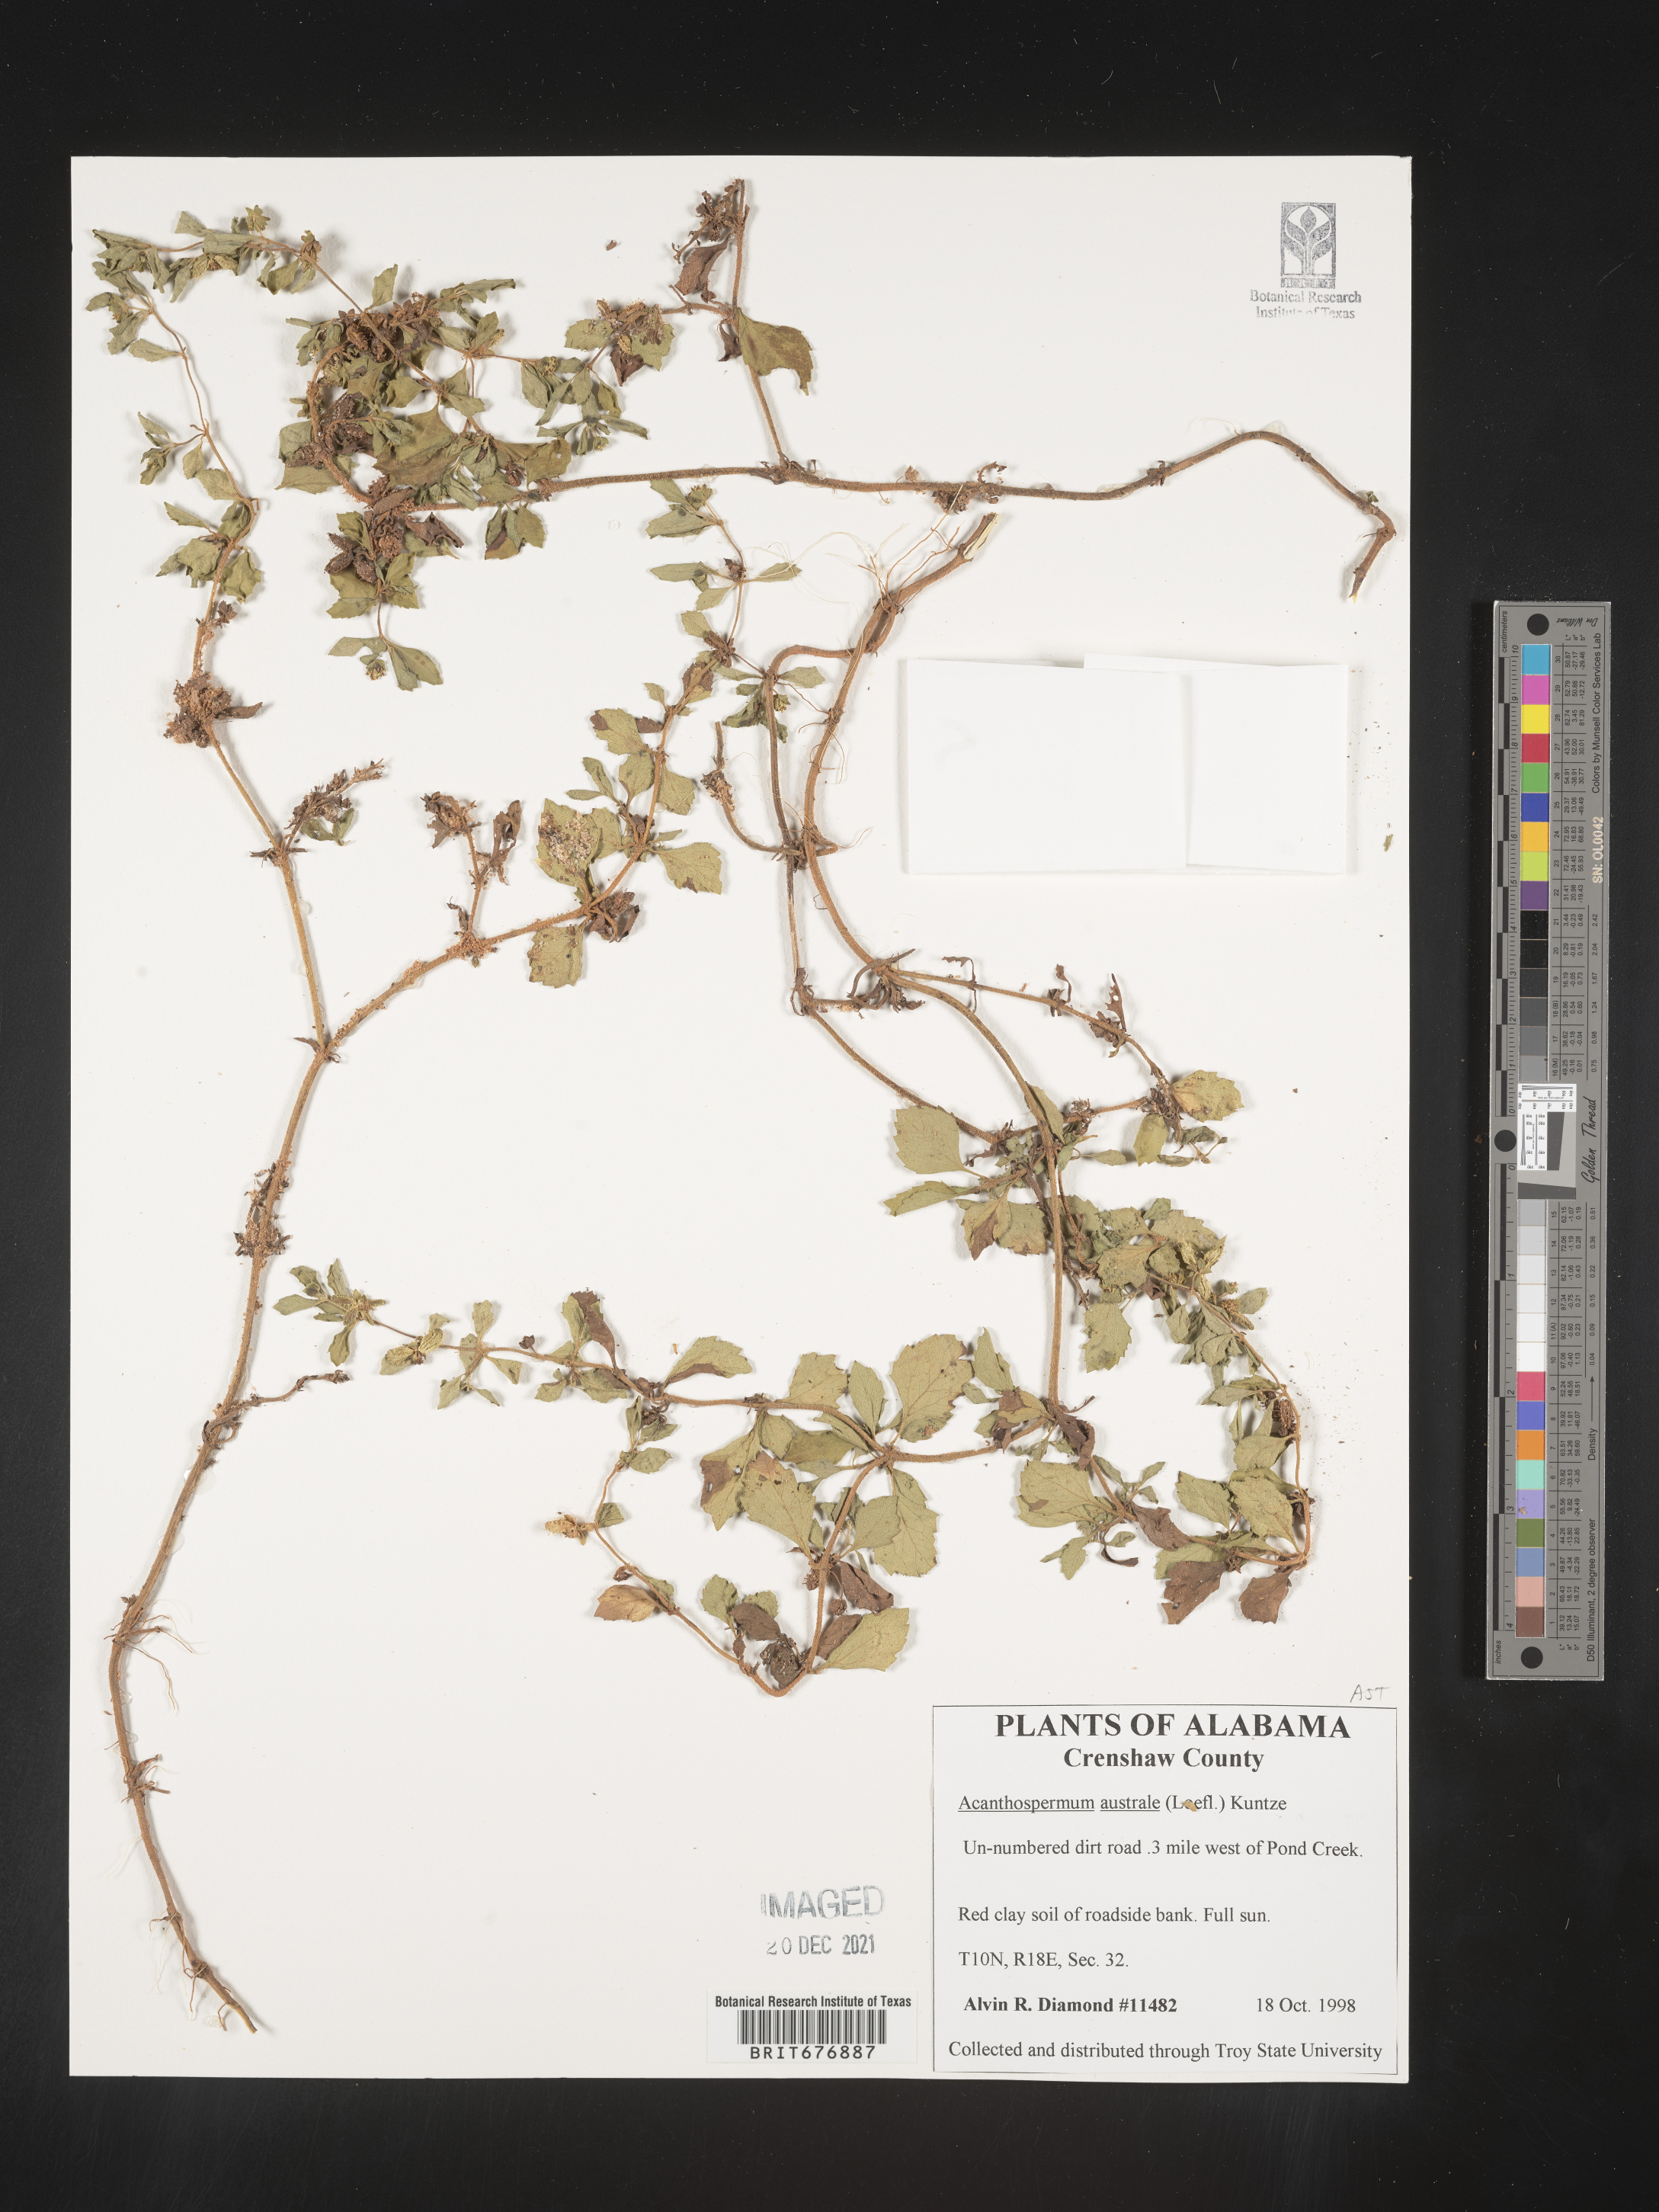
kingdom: Plantae
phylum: Tracheophyta
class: Magnoliopsida
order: Asterales
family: Asteraceae
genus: Acanthospermum
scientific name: Acanthospermum australe
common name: Paraguayan starbur
